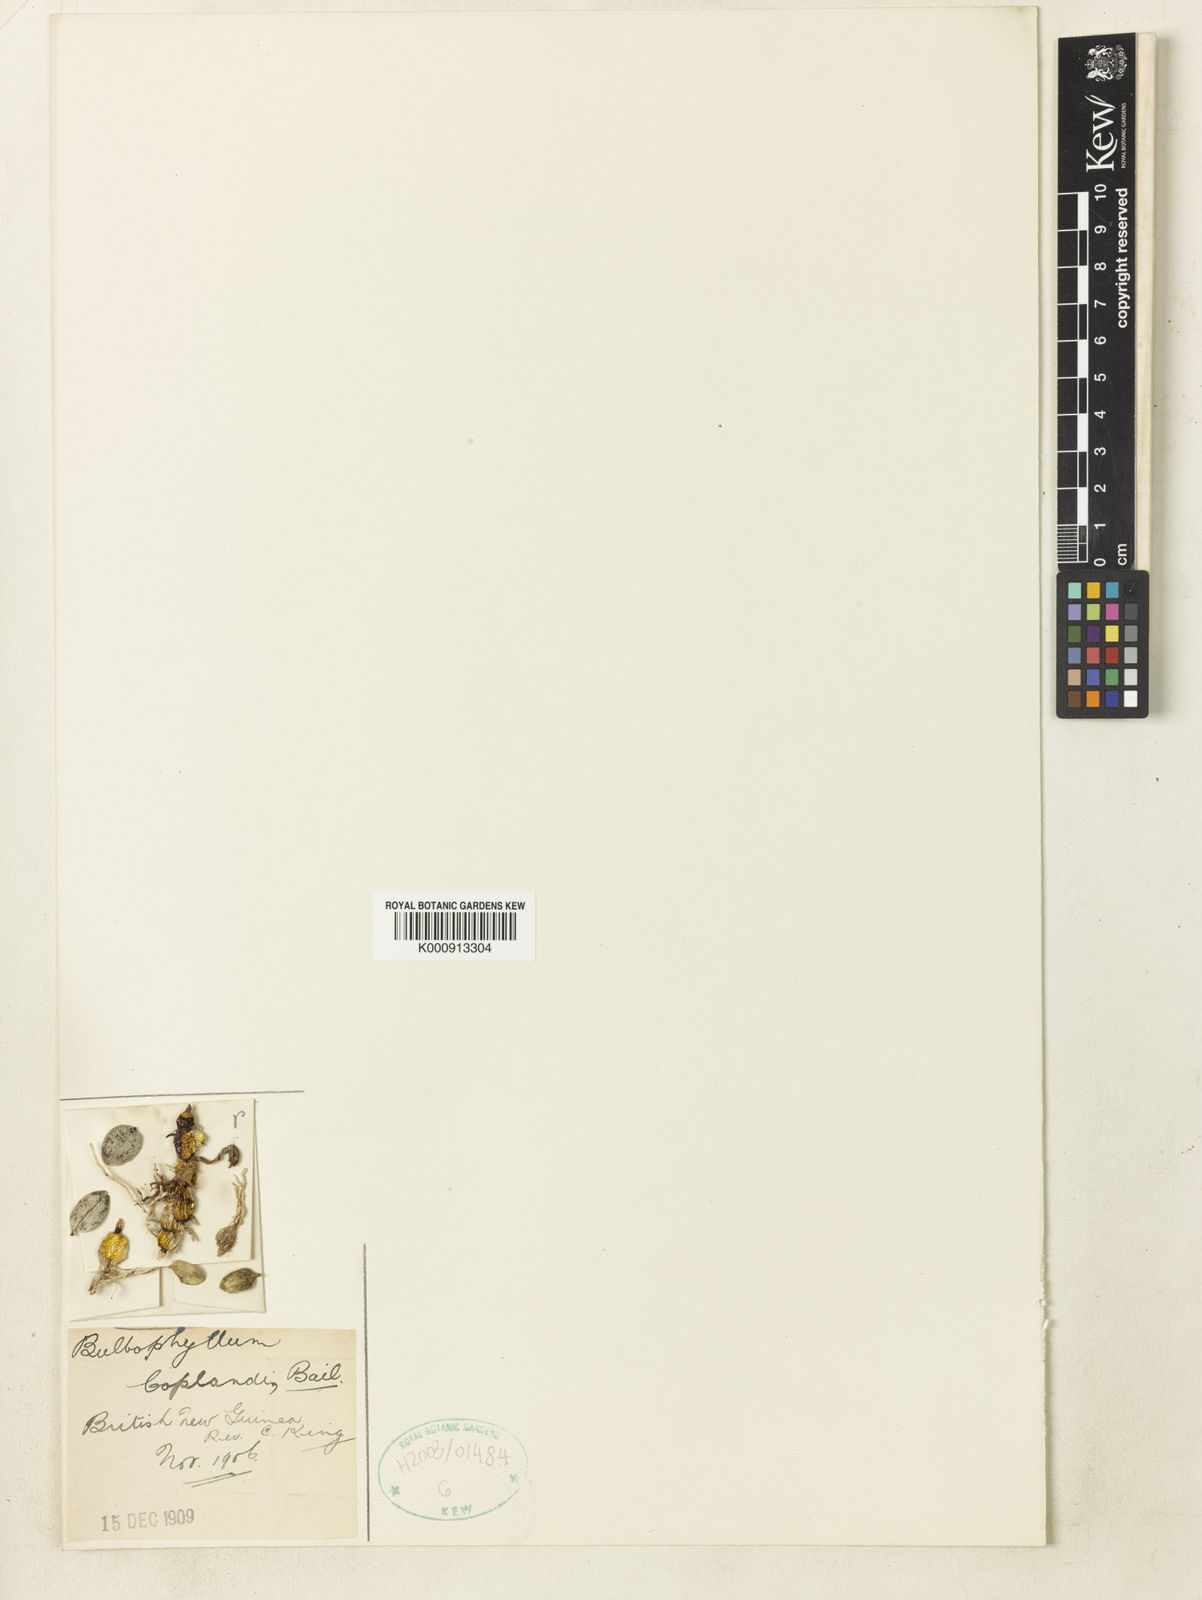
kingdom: Plantae
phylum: Tracheophyta
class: Liliopsida
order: Asparagales
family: Orchidaceae
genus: Dendrobium
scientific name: Dendrobium cyclobulbon
